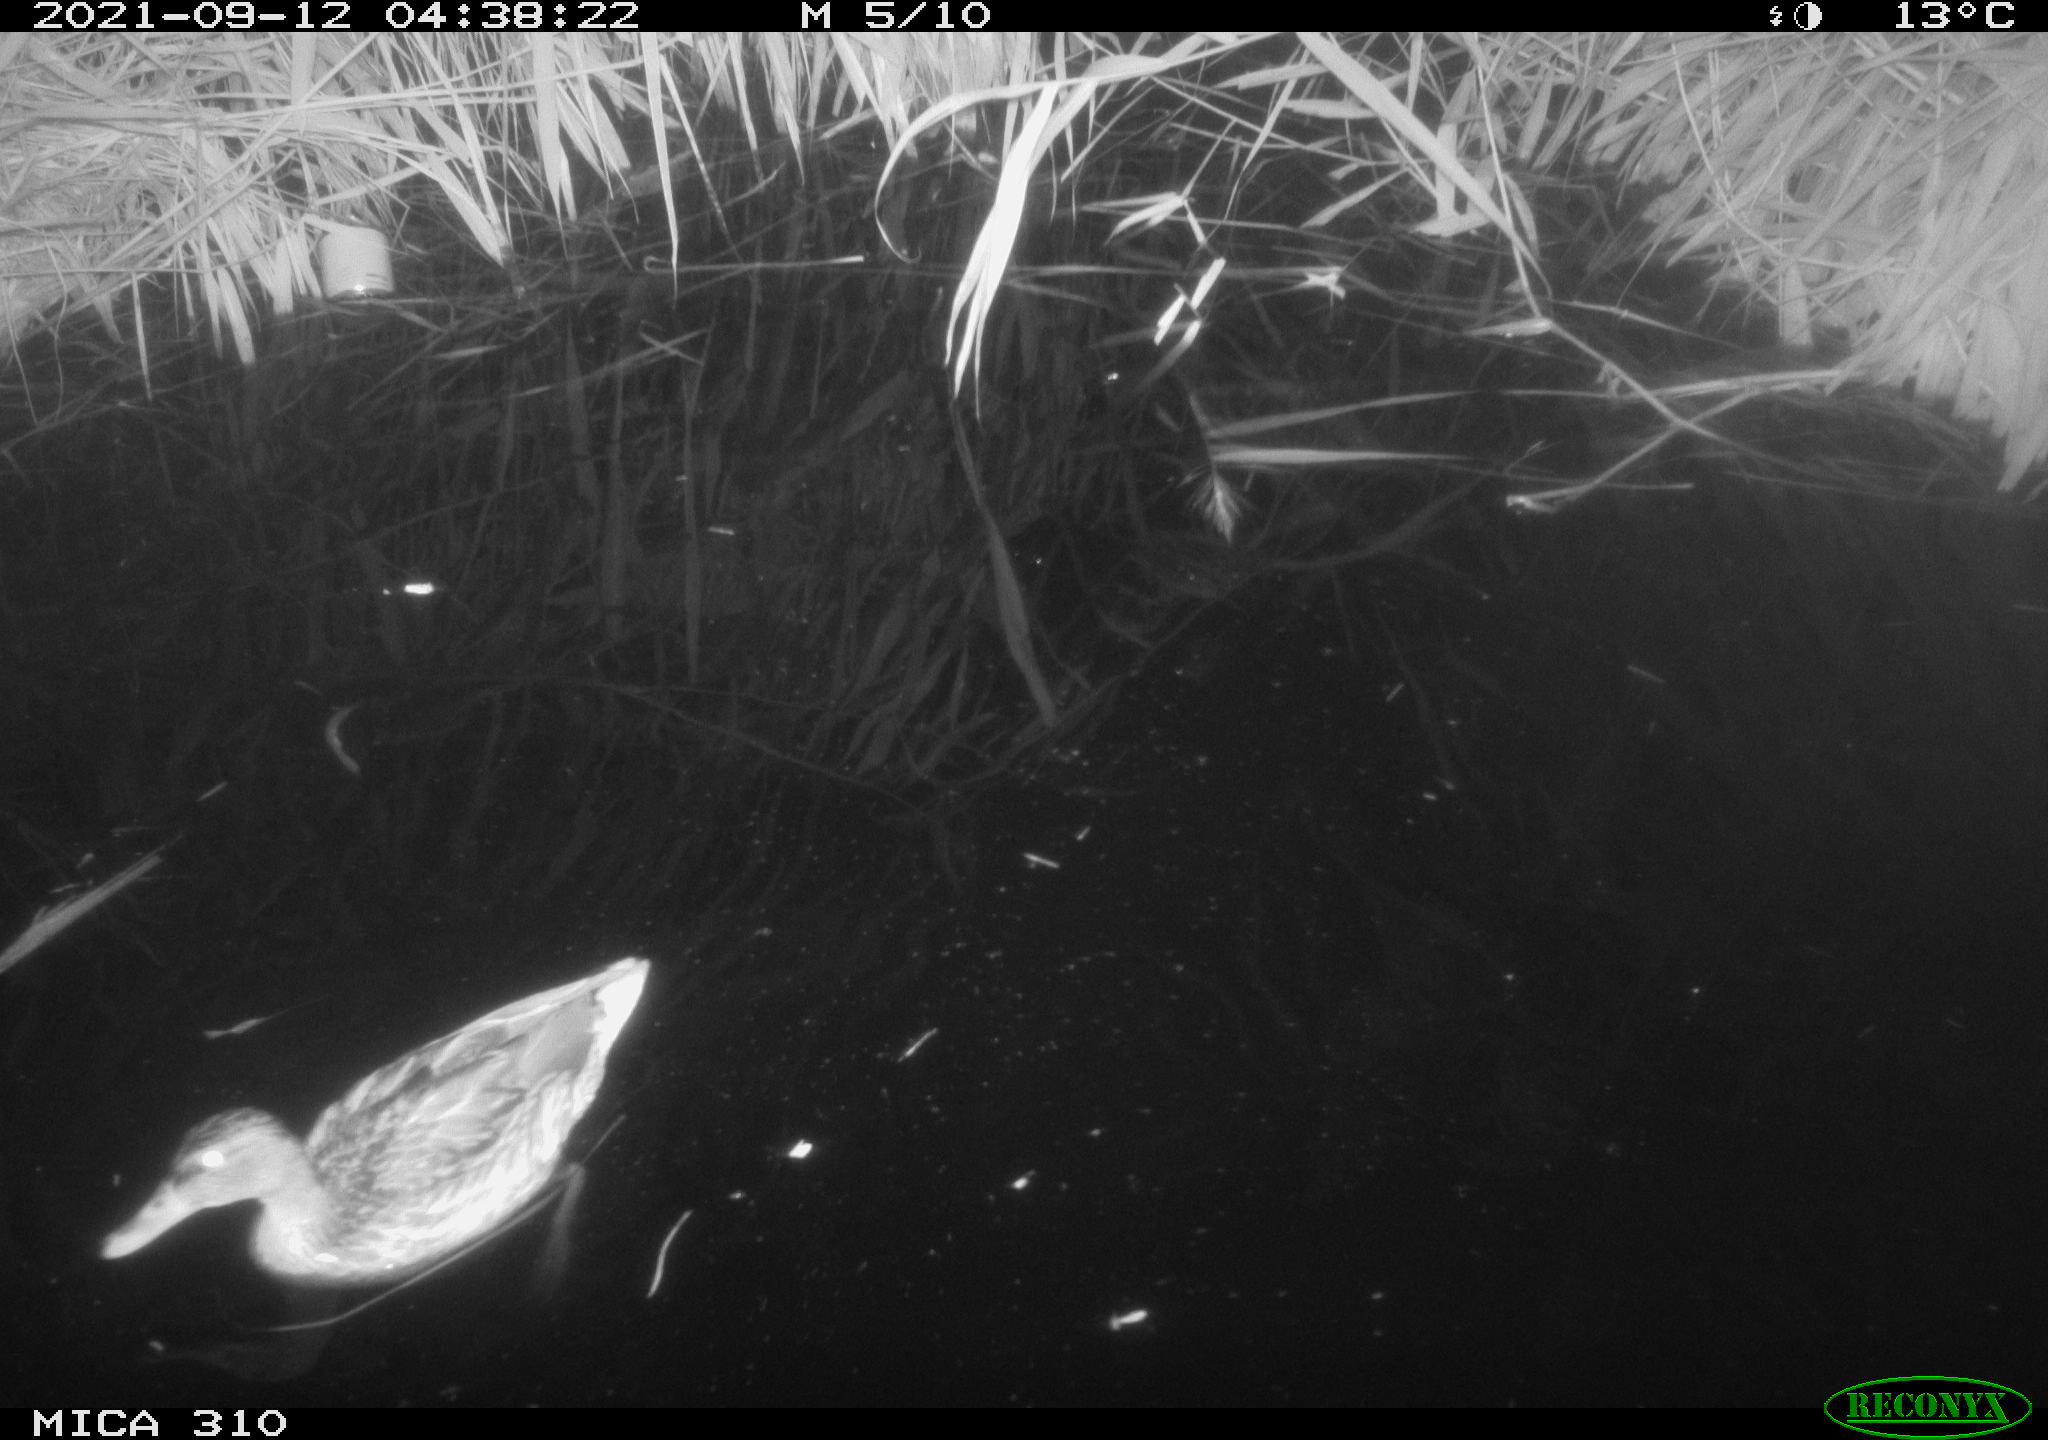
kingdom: Animalia
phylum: Chordata
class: Aves
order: Anseriformes
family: Anatidae
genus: Anas
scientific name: Anas platyrhynchos
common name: Mallard
